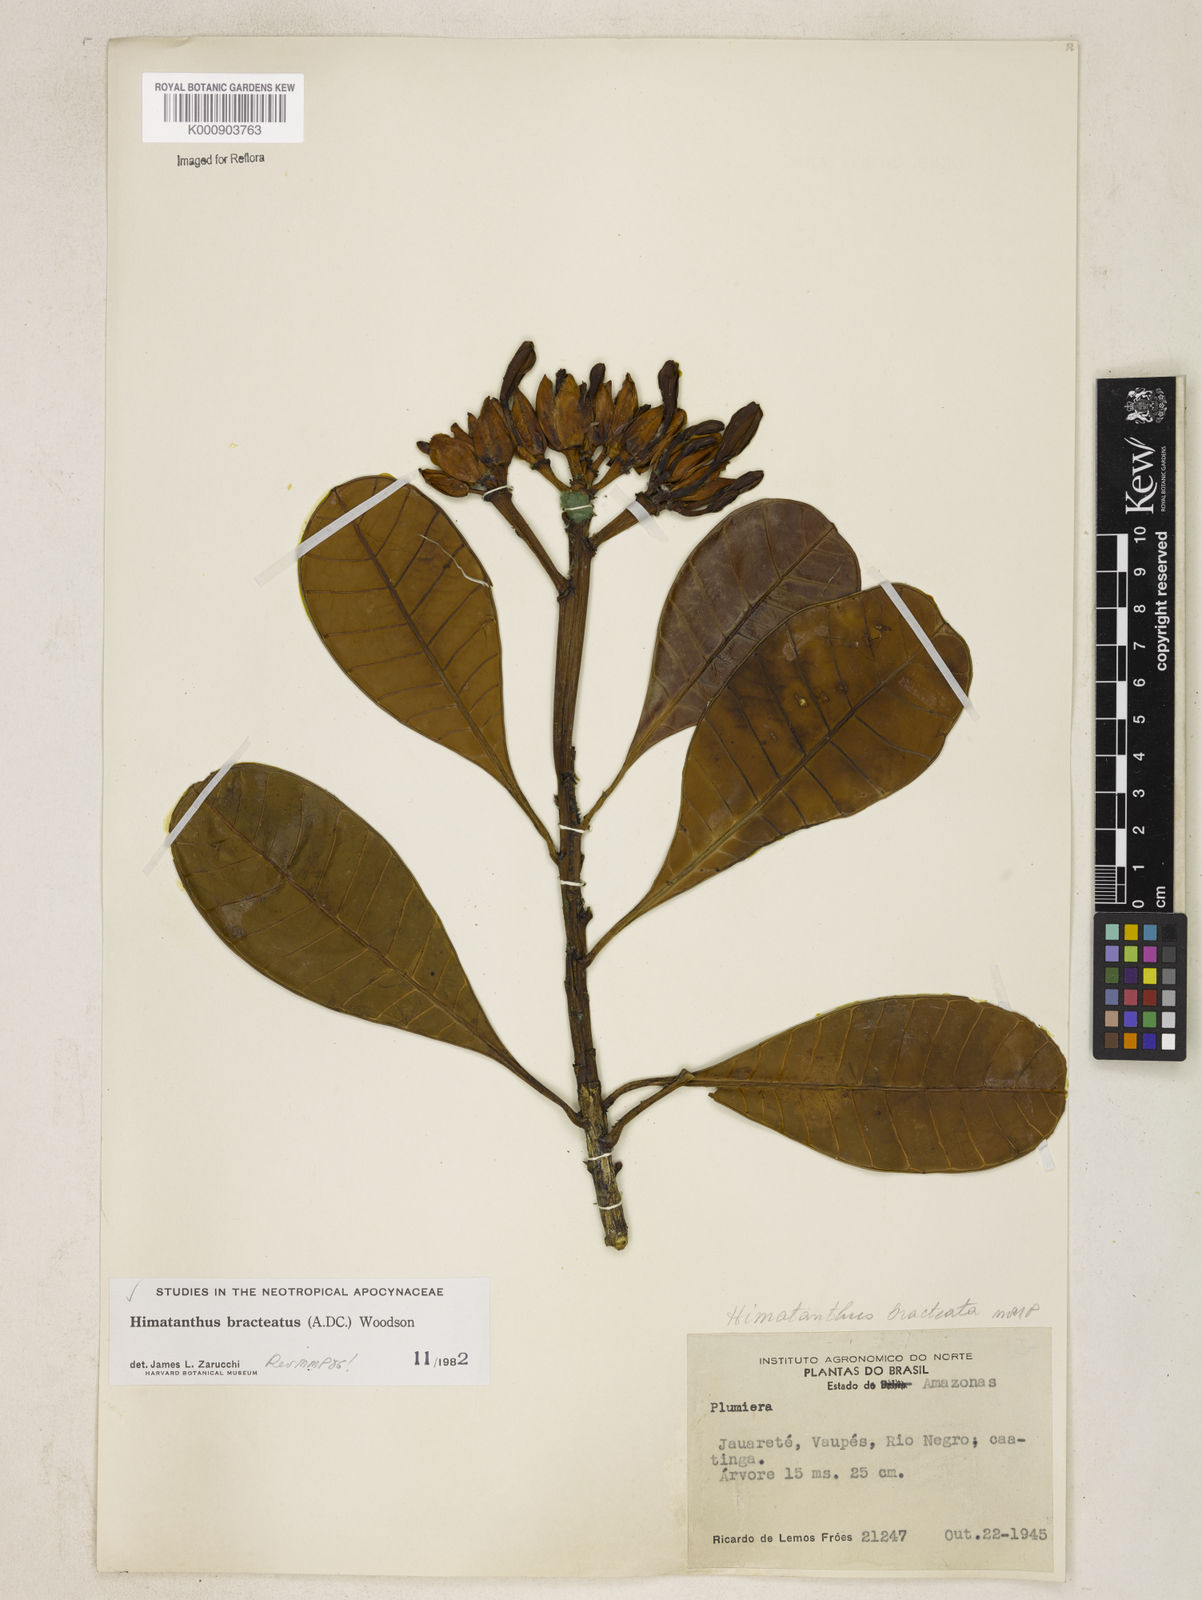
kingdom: Plantae
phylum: Tracheophyta
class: Magnoliopsida
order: Gentianales
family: Apocynaceae
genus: Himatanthus
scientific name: Himatanthus bracteatus
